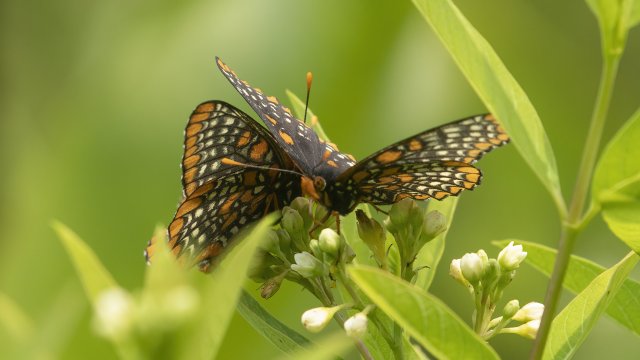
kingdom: Animalia
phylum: Arthropoda
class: Insecta
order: Lepidoptera
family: Nymphalidae
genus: Euphydryas
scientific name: Euphydryas phaeton
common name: Baltimore Checkerspot
